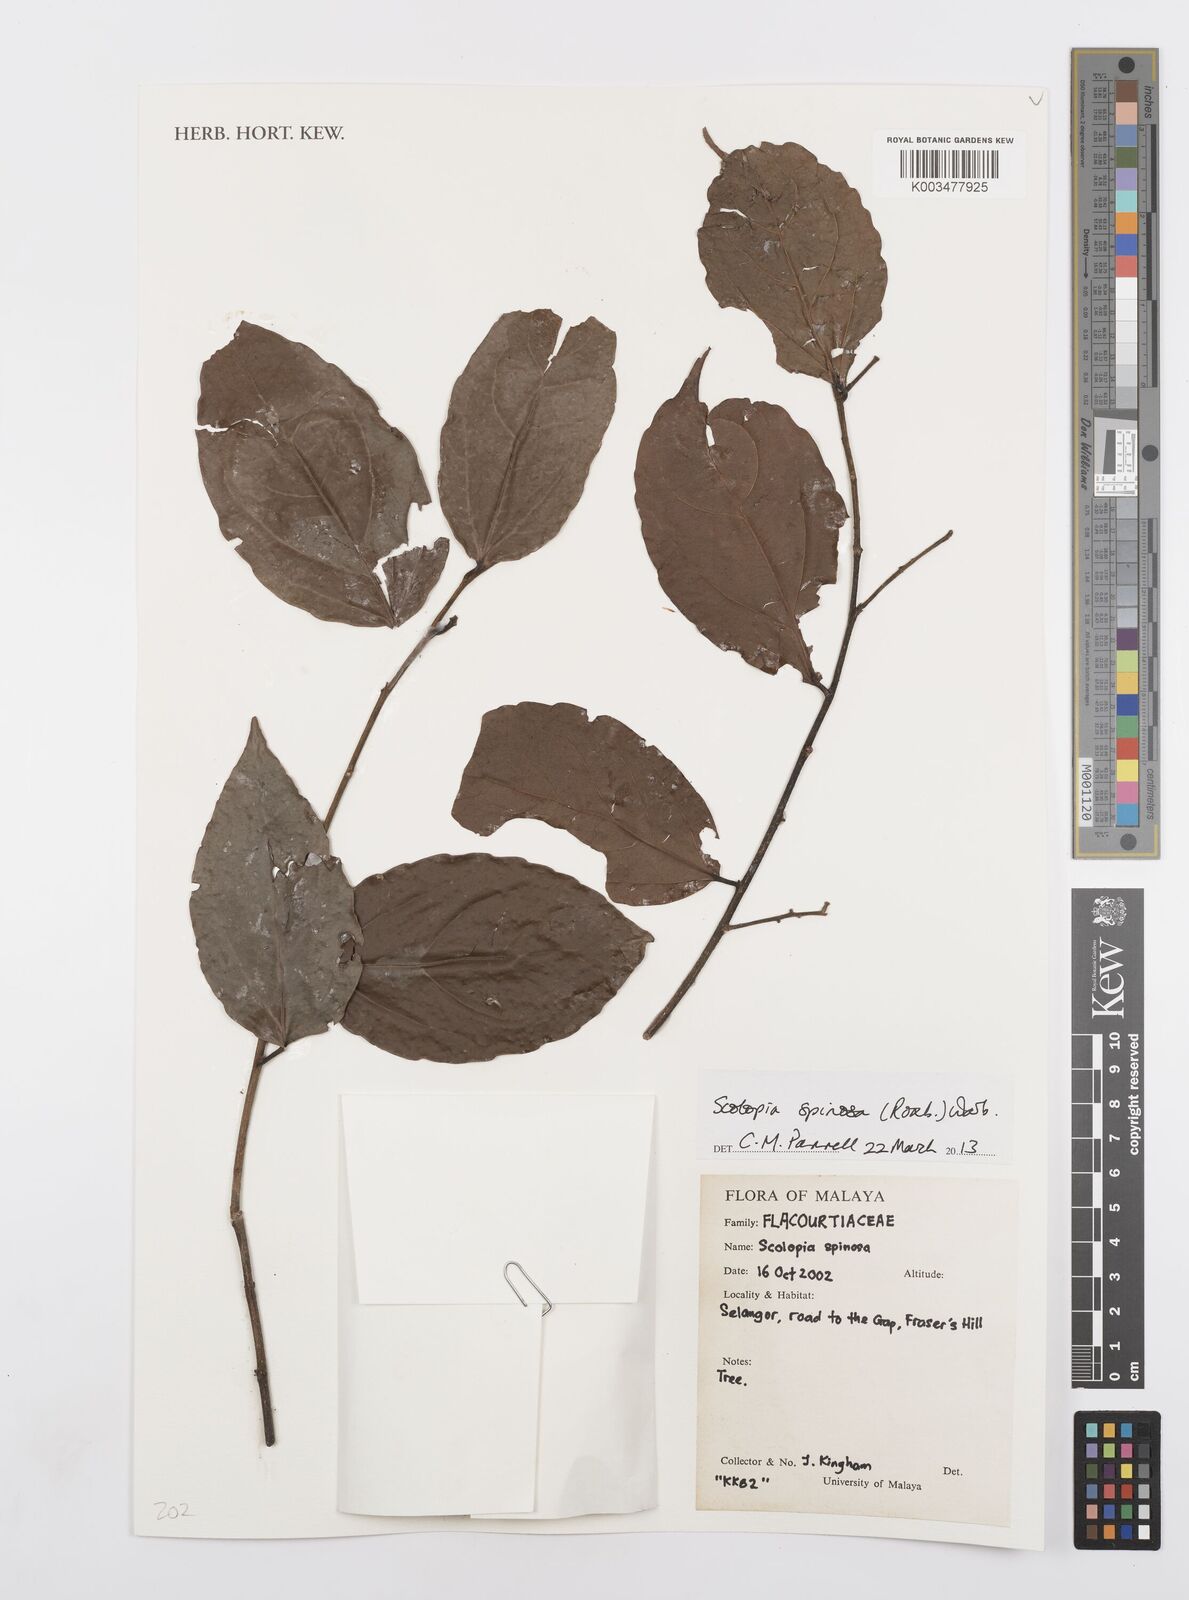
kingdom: Plantae
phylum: Tracheophyta
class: Magnoliopsida
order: Malpighiales
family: Salicaceae
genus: Scolopia
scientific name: Scolopia spinosa
